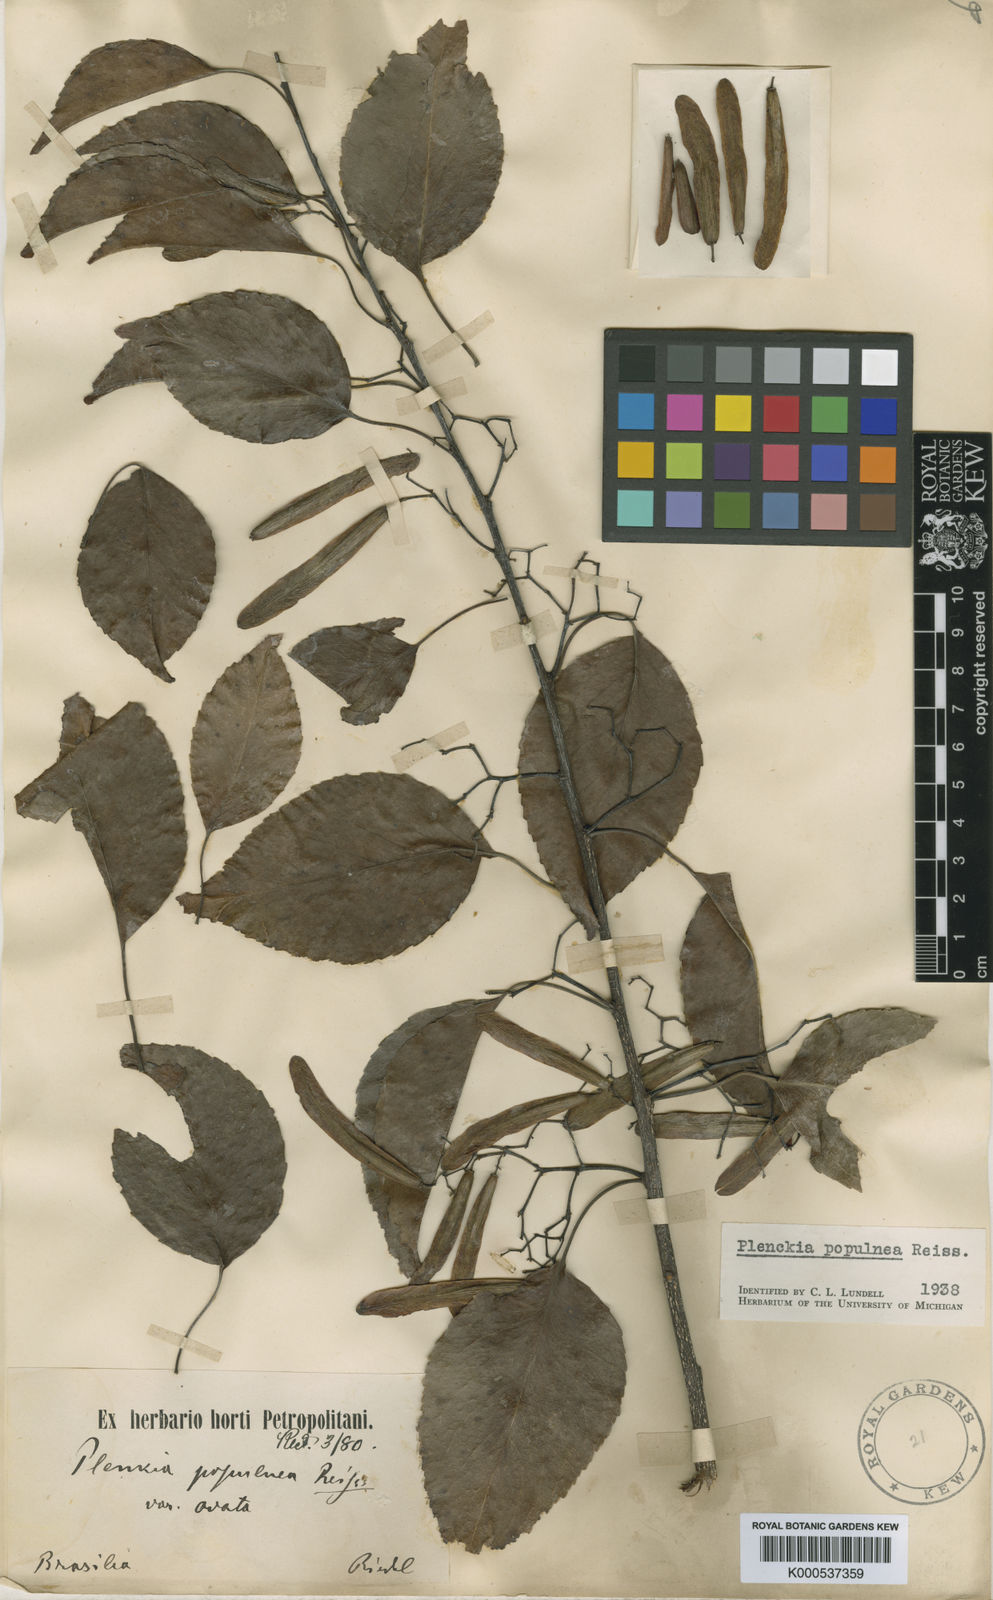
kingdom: Plantae
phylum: Tracheophyta
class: Magnoliopsida
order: Celastrales
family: Celastraceae
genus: Plenckia
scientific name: Plenckia populnea
